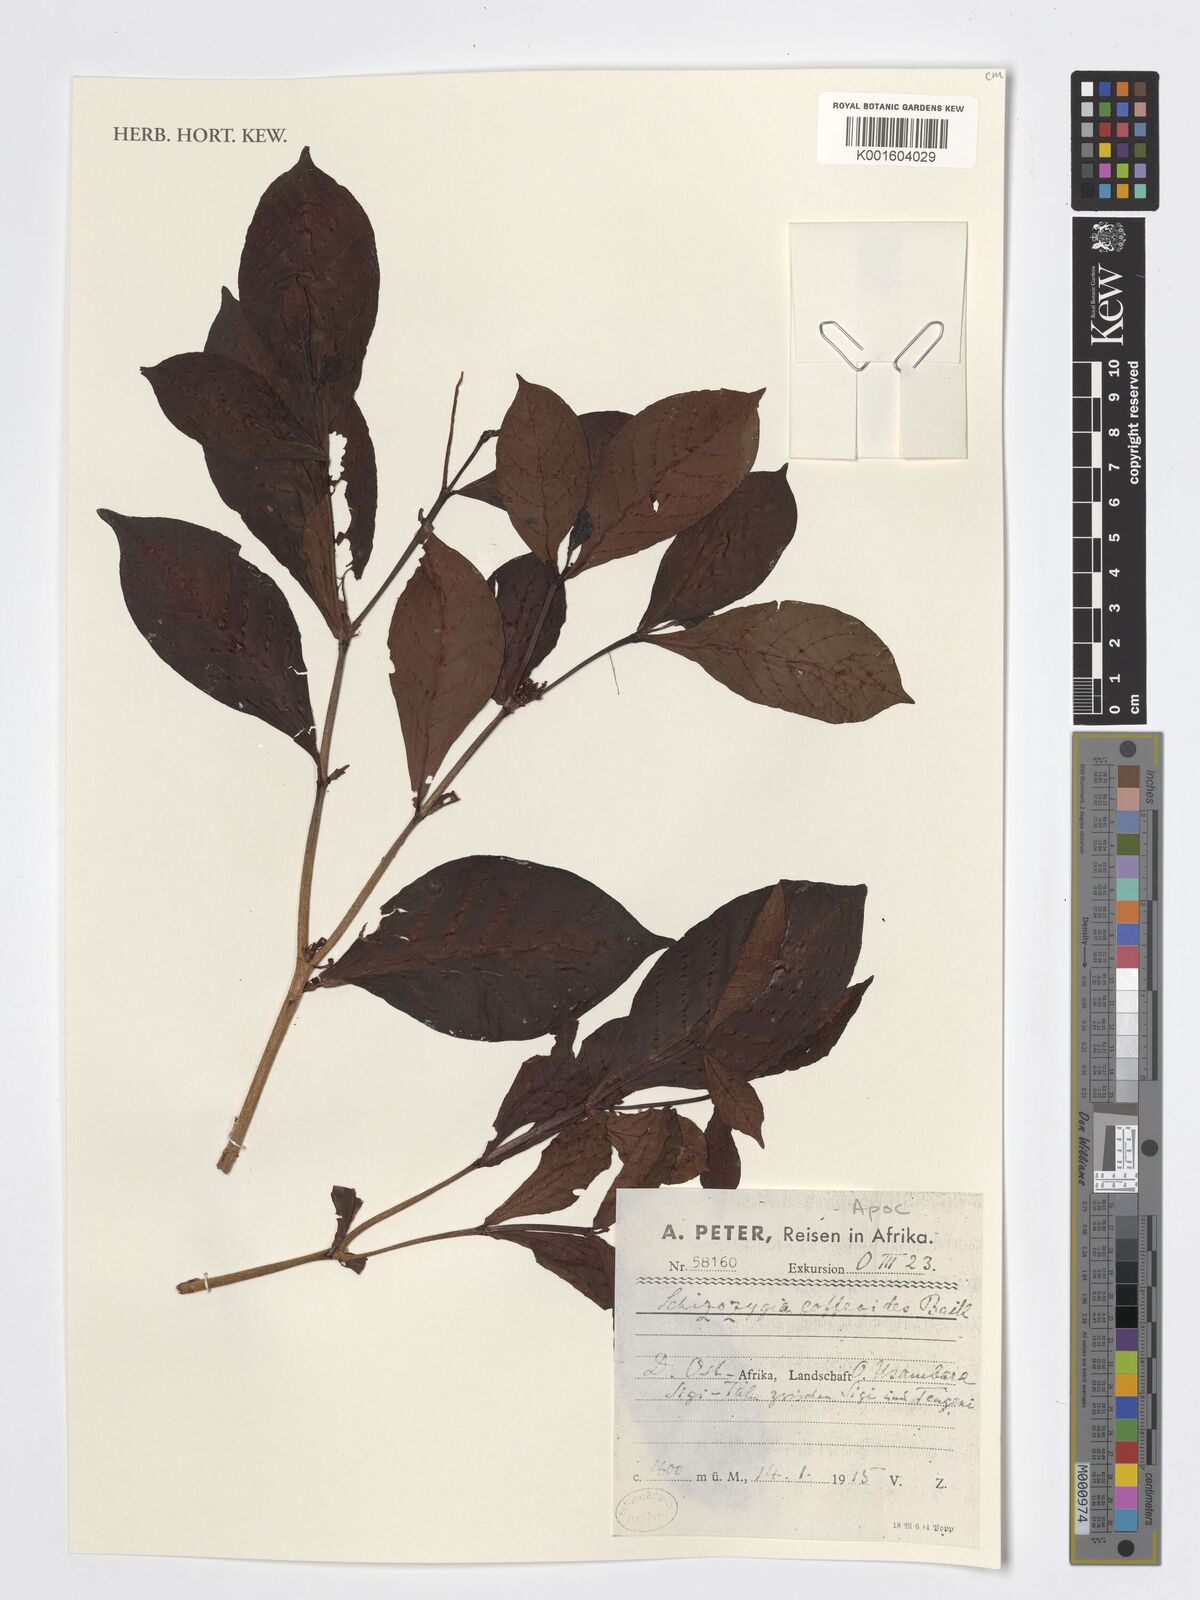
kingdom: Plantae
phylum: Tracheophyta
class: Magnoliopsida
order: Gentianales
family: Apocynaceae
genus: Schizozygia
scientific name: Schizozygia coffeoides
